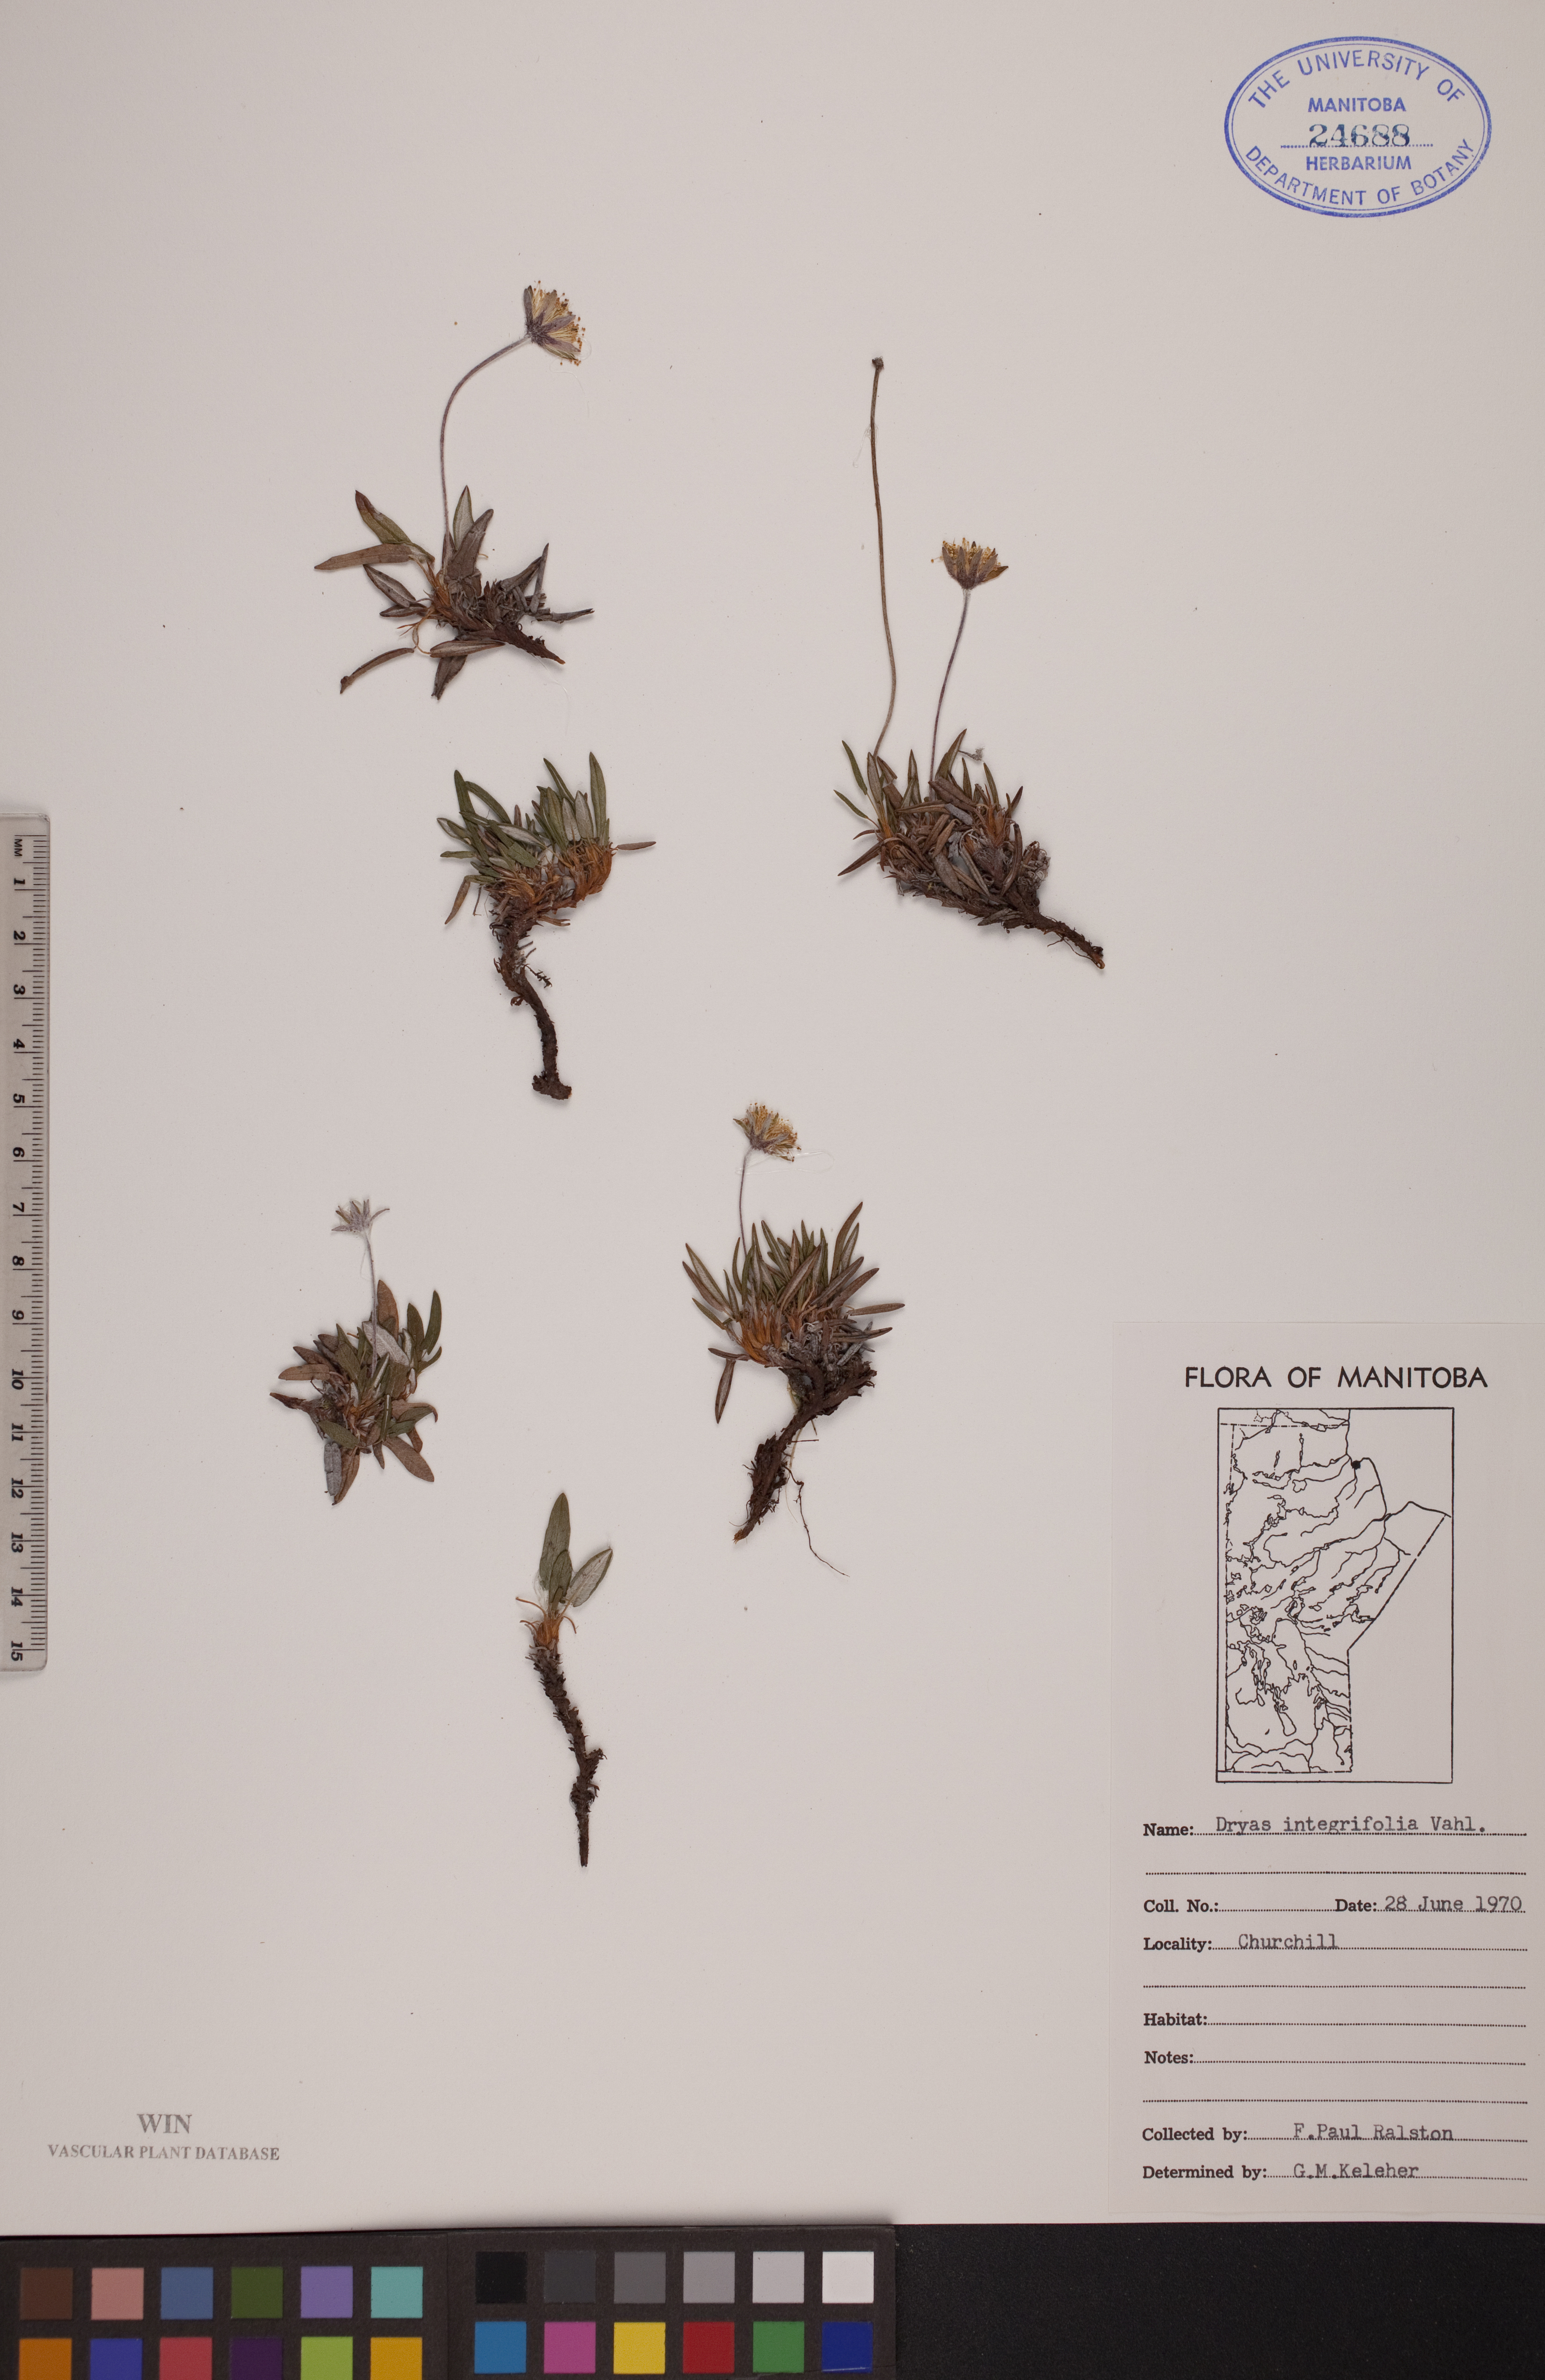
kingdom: Plantae
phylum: Tracheophyta
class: Magnoliopsida
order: Rosales
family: Rosaceae
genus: Dryas
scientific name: Dryas integrifolia
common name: Entire-leaved mountain avens
